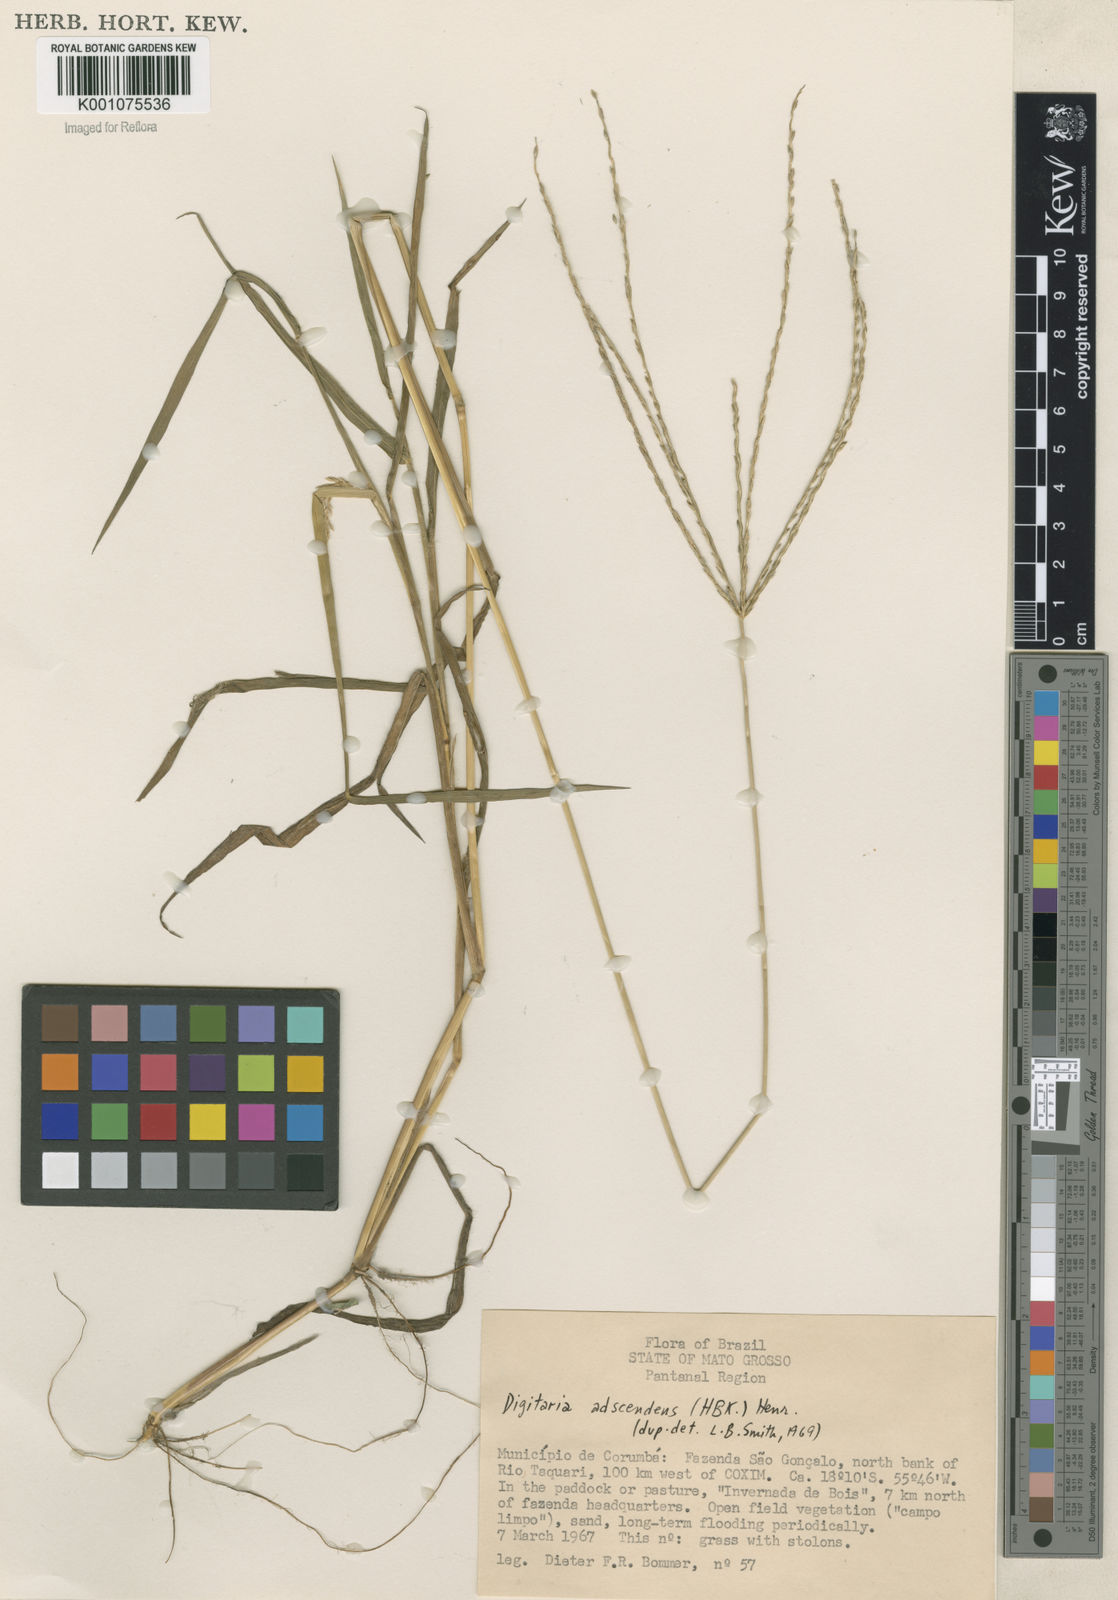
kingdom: Plantae
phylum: Tracheophyta
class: Liliopsida
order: Poales
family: Poaceae
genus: Digitaria
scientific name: Digitaria ciliaris
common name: Tropical finger-grass
